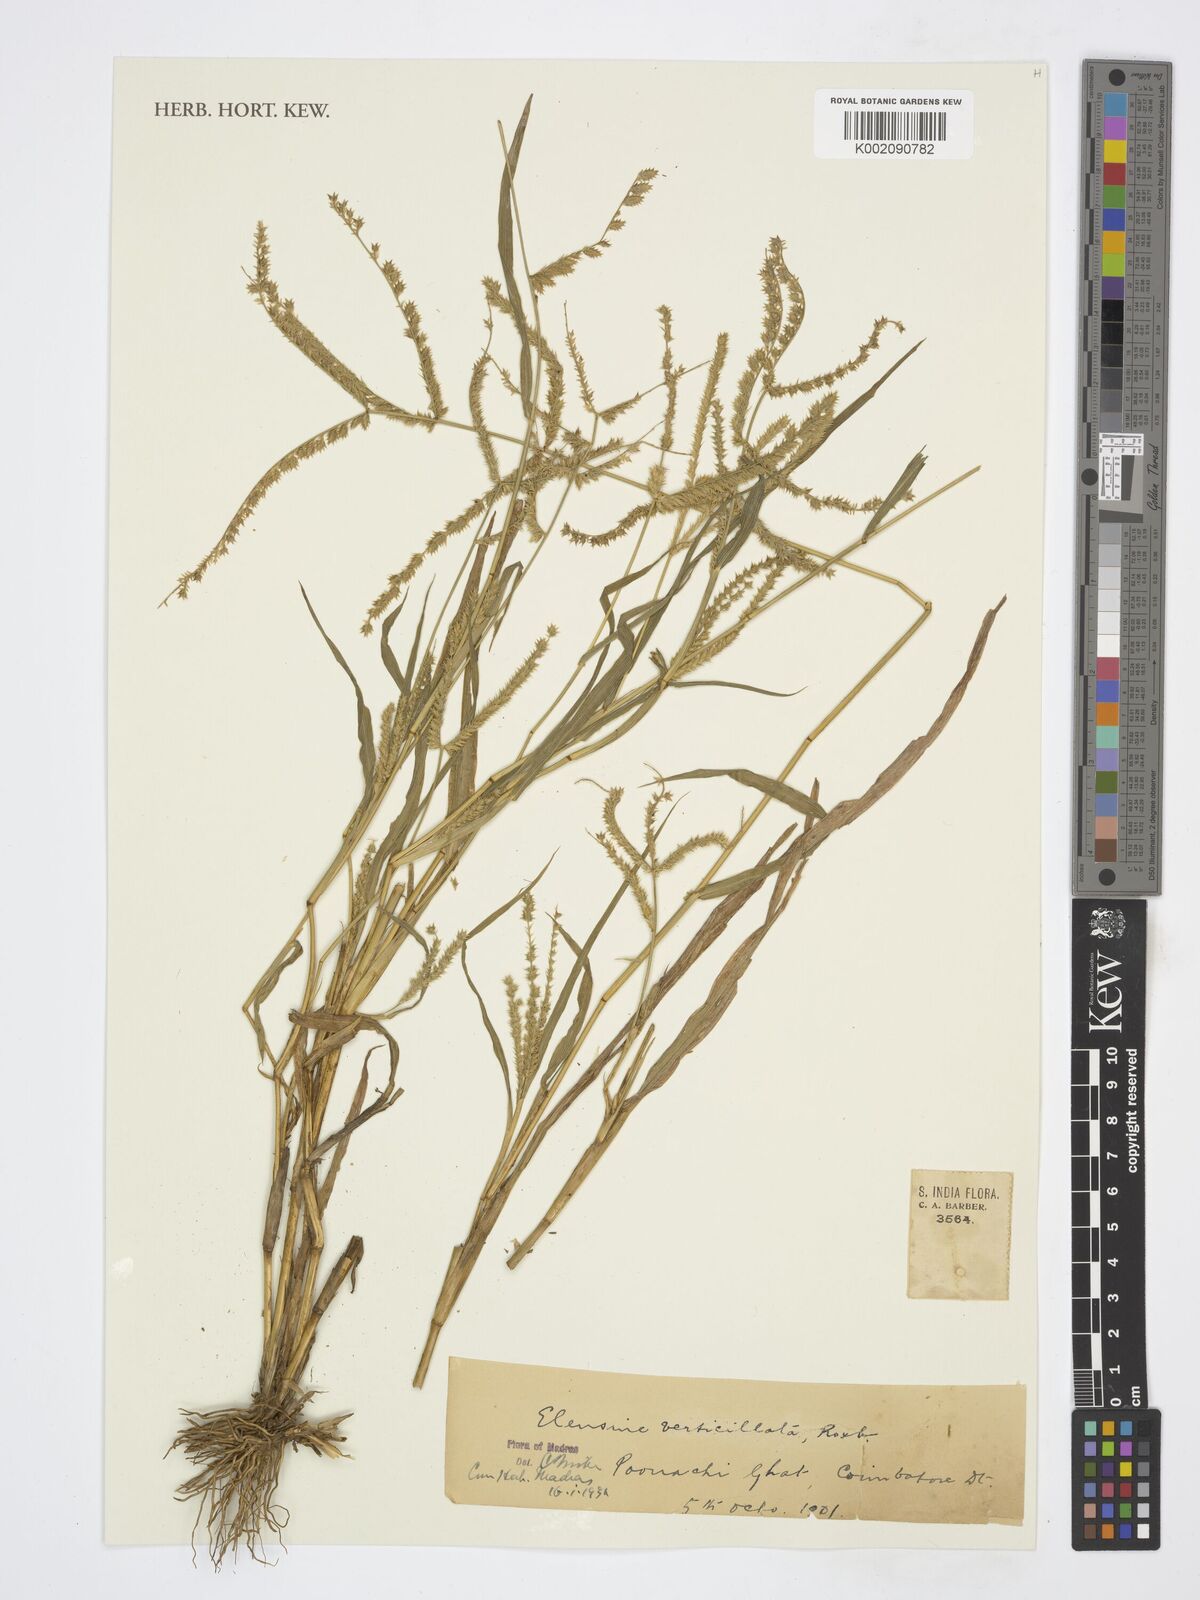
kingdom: Animalia
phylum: Arthropoda
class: Arachnida
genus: Arachne
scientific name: Arachne
